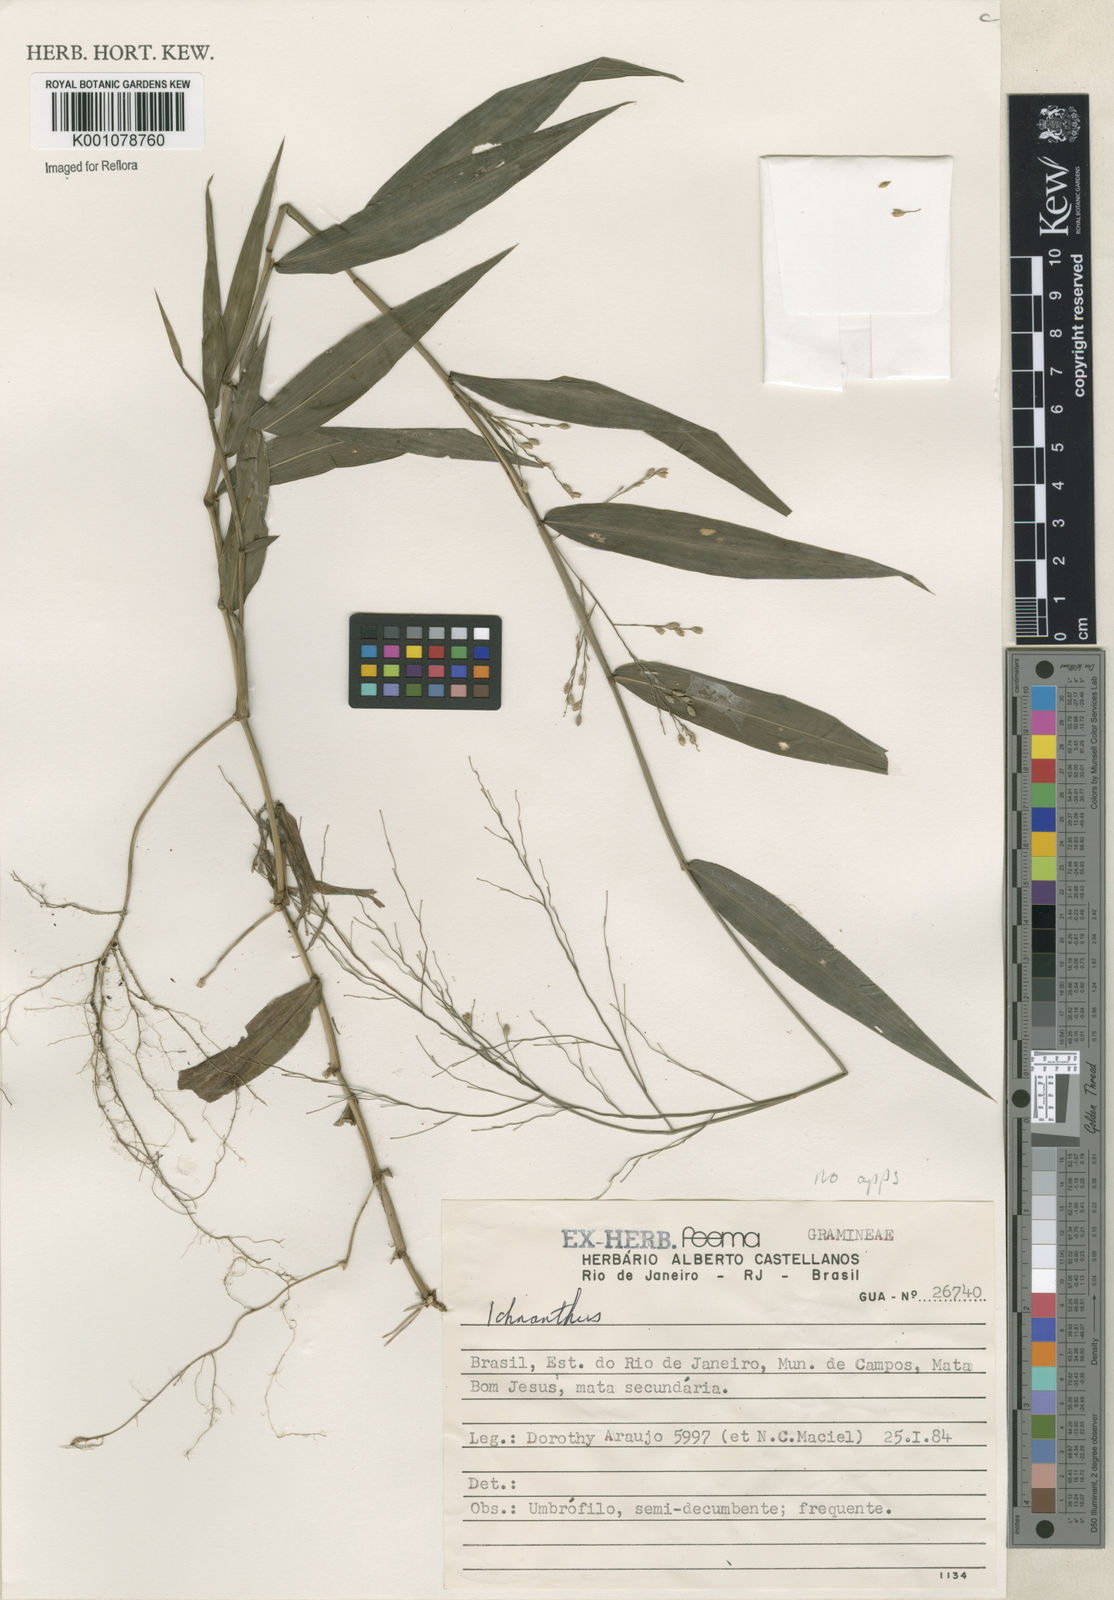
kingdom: Plantae
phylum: Tracheophyta
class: Liliopsida
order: Poales
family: Poaceae
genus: Panicum
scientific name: Panicum
